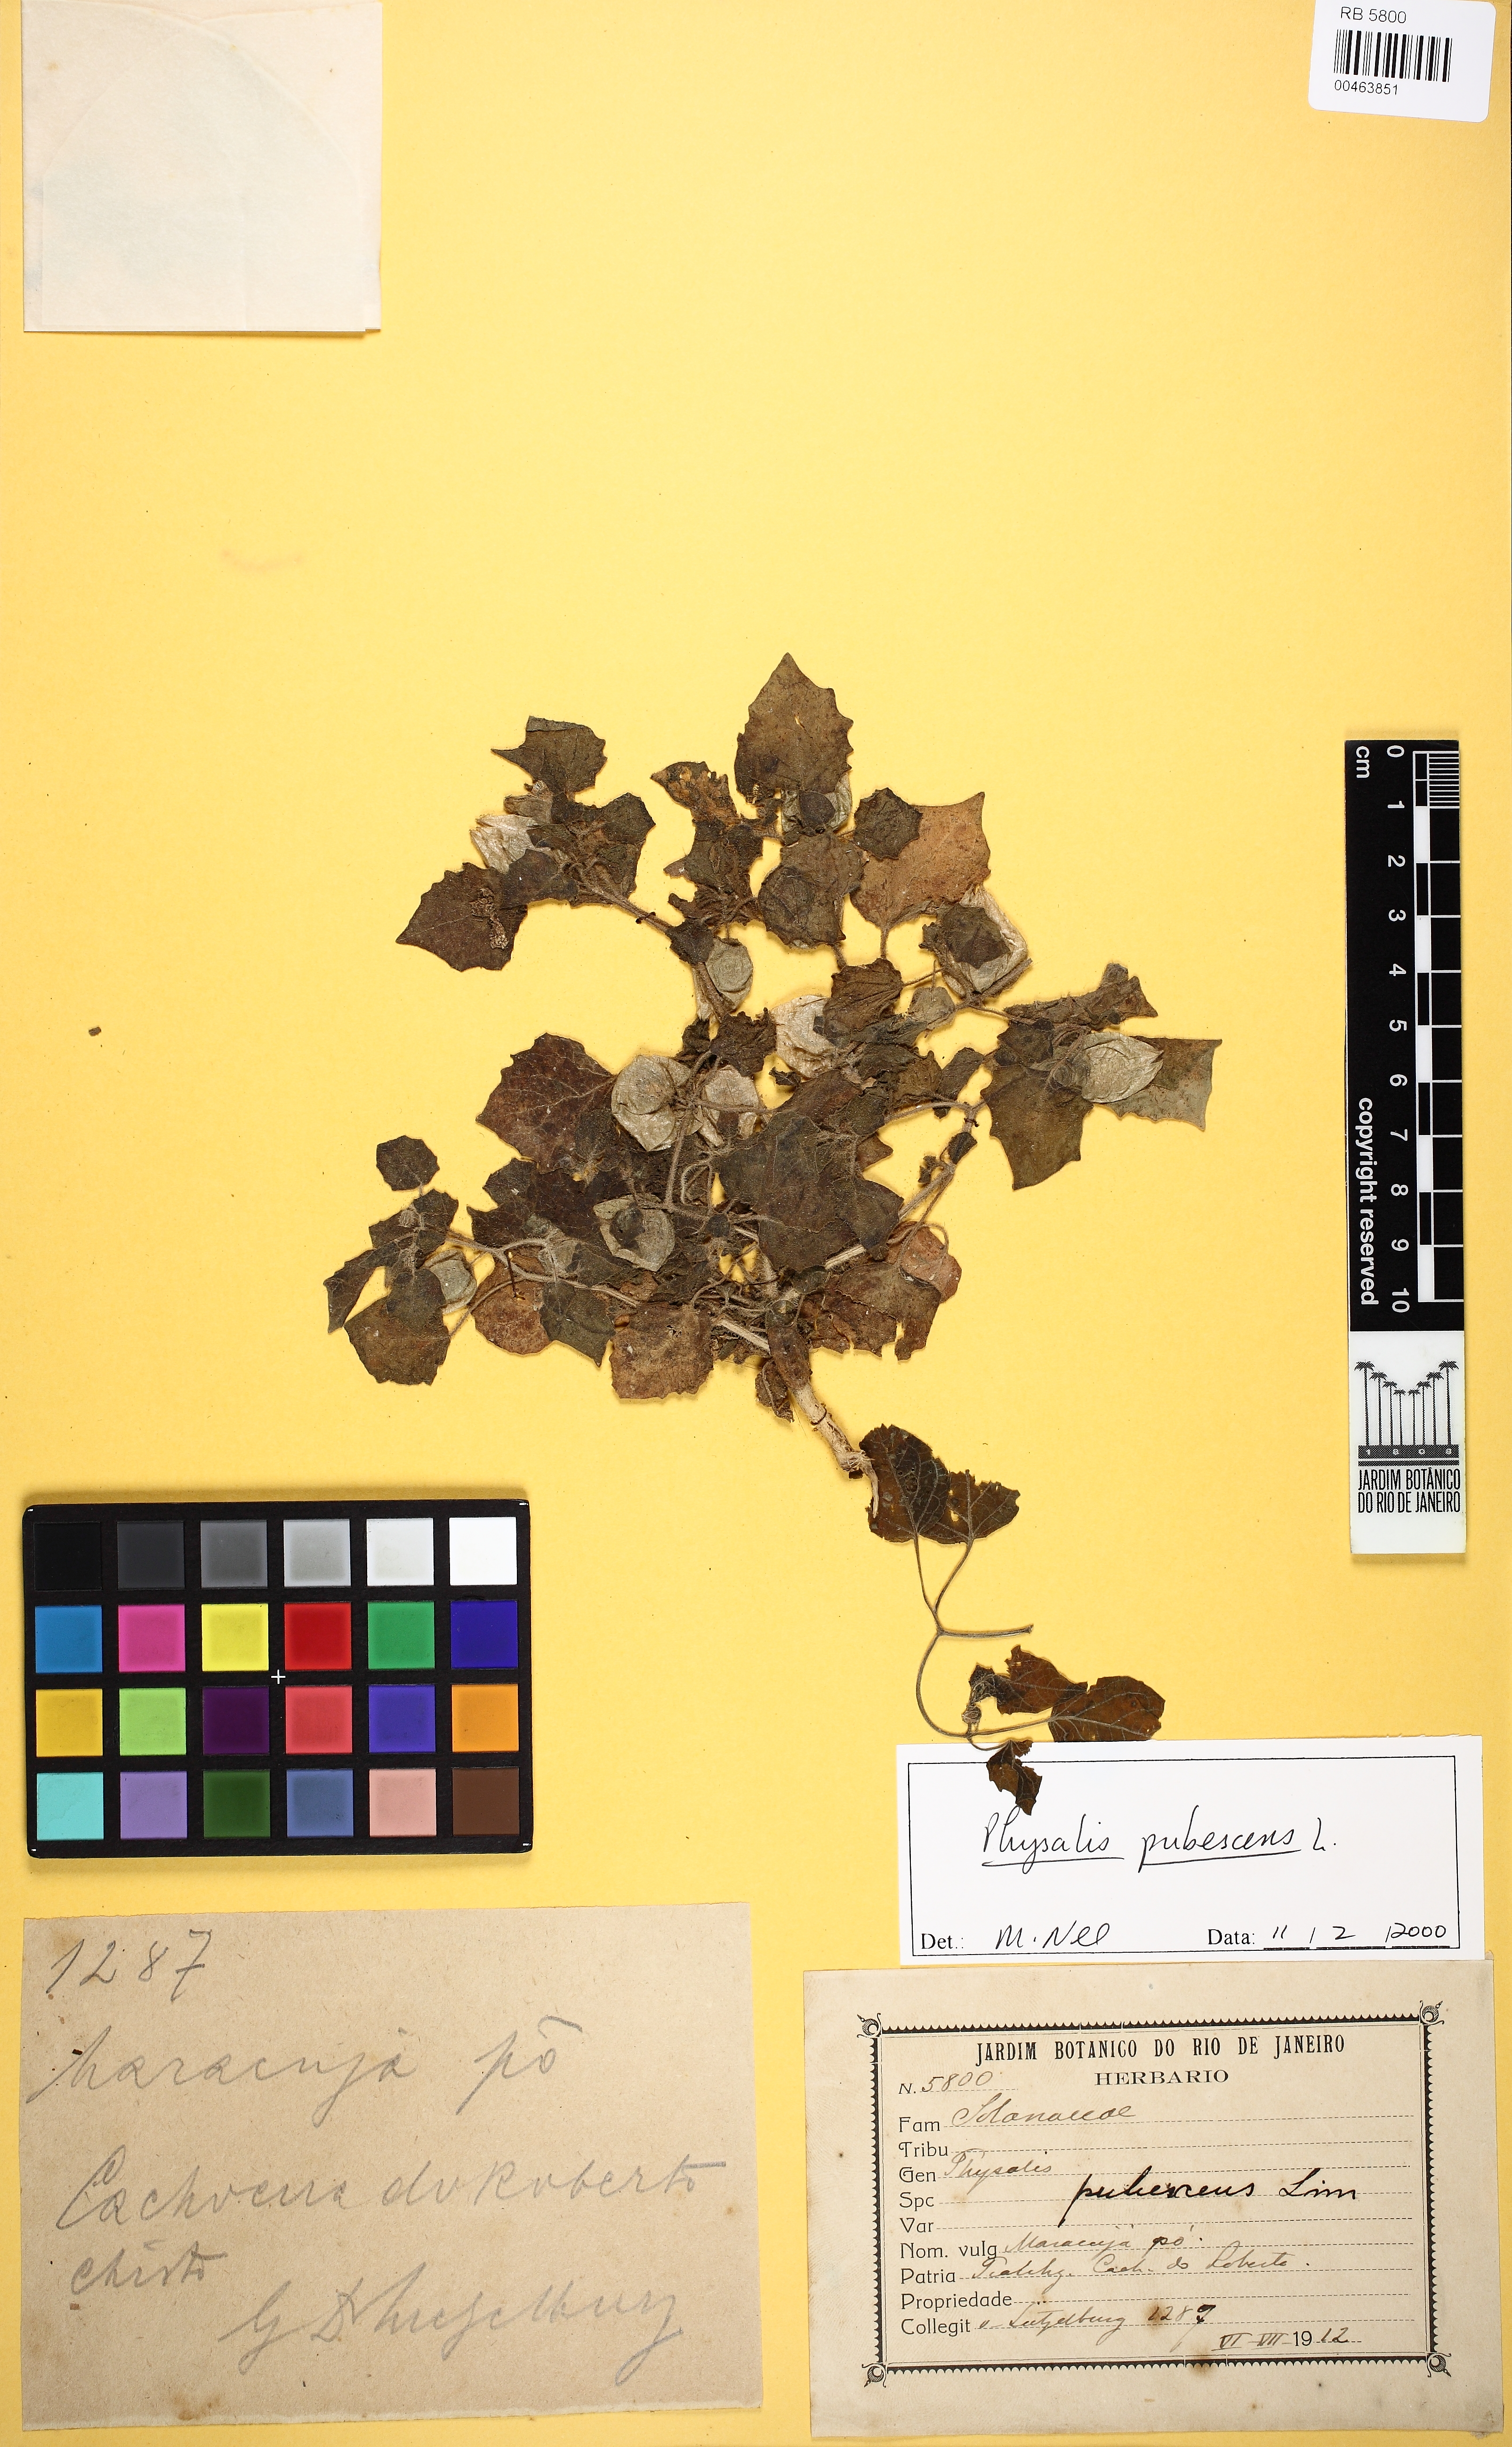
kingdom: Plantae
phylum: Tracheophyta
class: Magnoliopsida
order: Solanales
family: Solanaceae
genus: Physalis
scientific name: Physalis pubescens
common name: Downy ground-cherry
